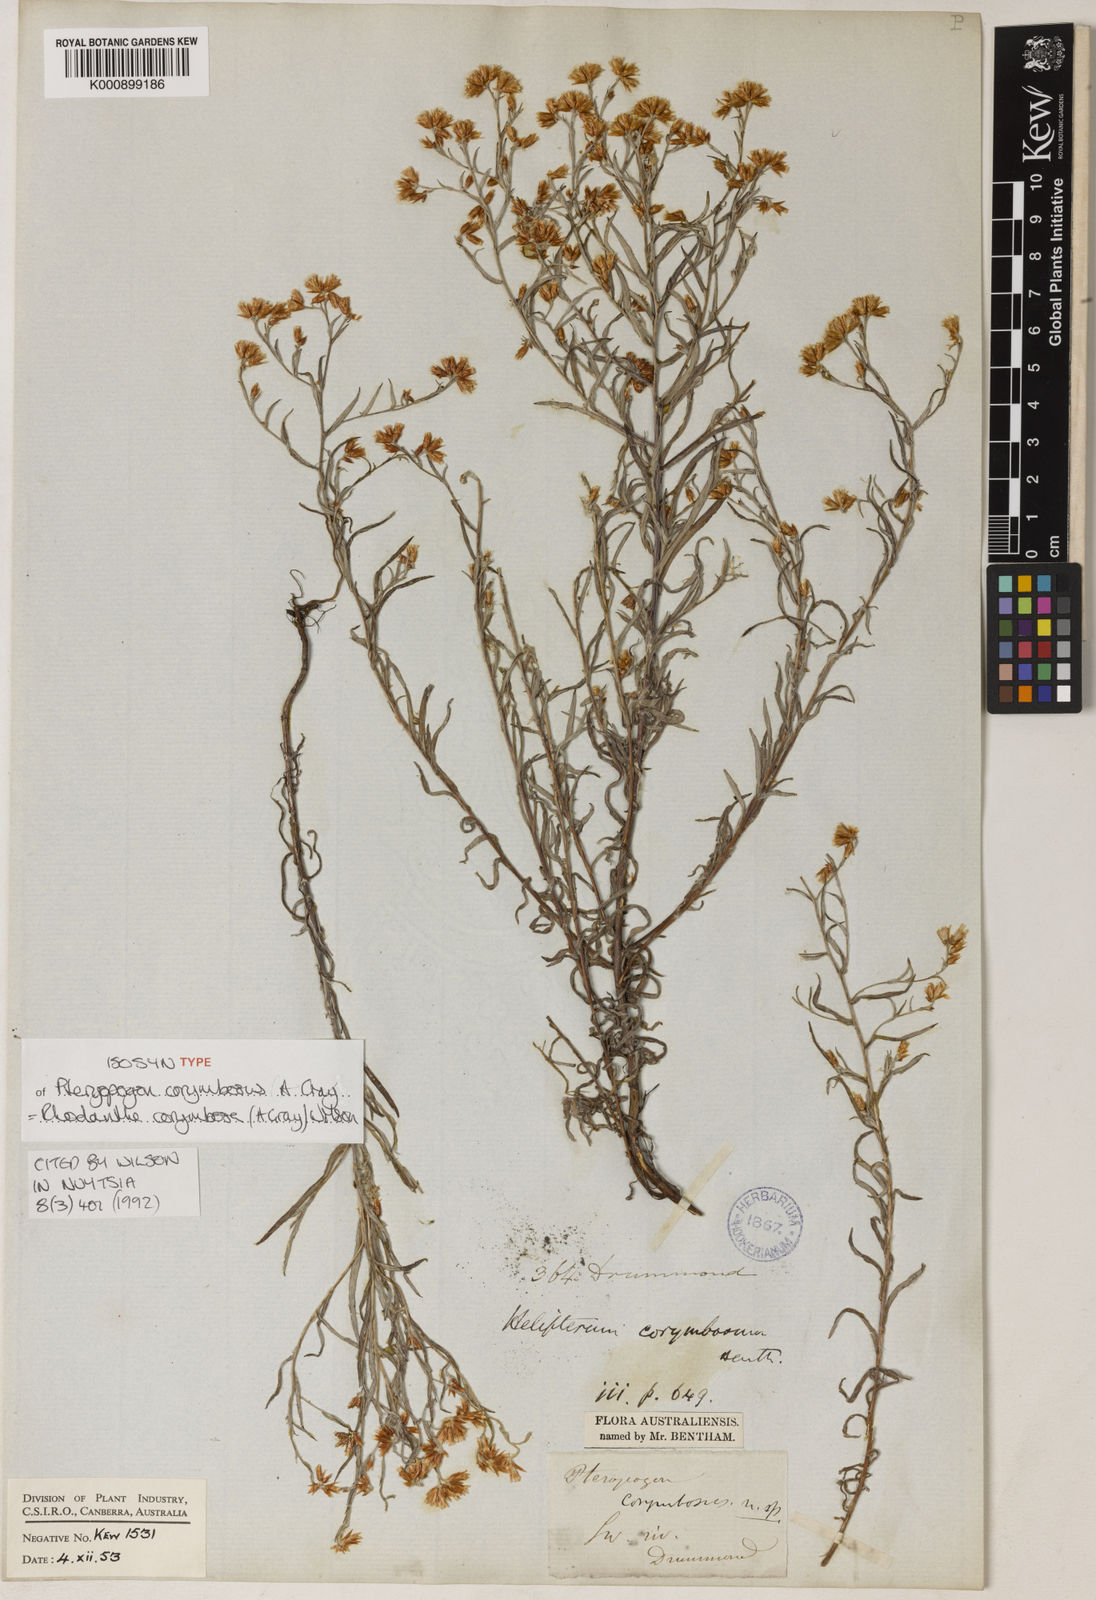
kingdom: Plantae
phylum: Tracheophyta
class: Magnoliopsida
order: Asterales
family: Asteraceae
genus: Rhodanthe
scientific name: Rhodanthe corymbosa
